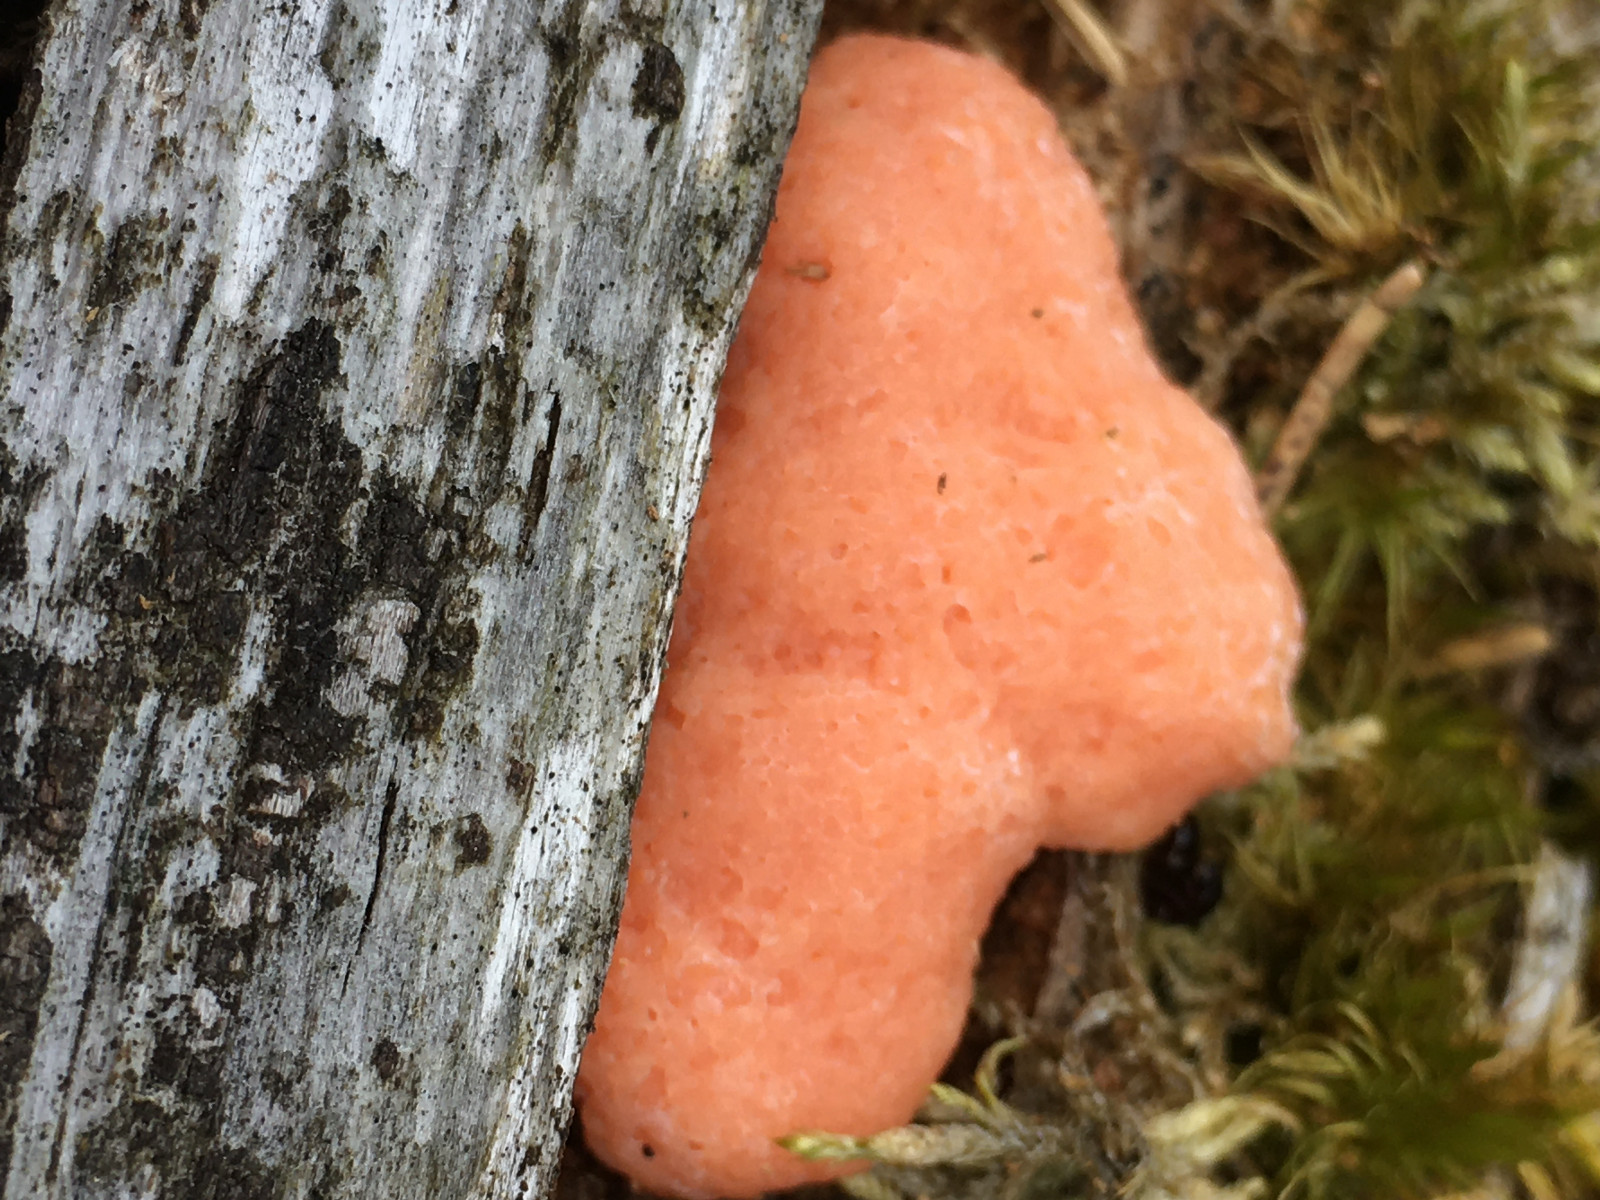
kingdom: Protozoa
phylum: Mycetozoa
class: Myxomycetes
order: Cribrariales
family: Tubiferaceae
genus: Tubifera
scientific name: Tubifera ferruginosa
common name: kanel-støvrør
